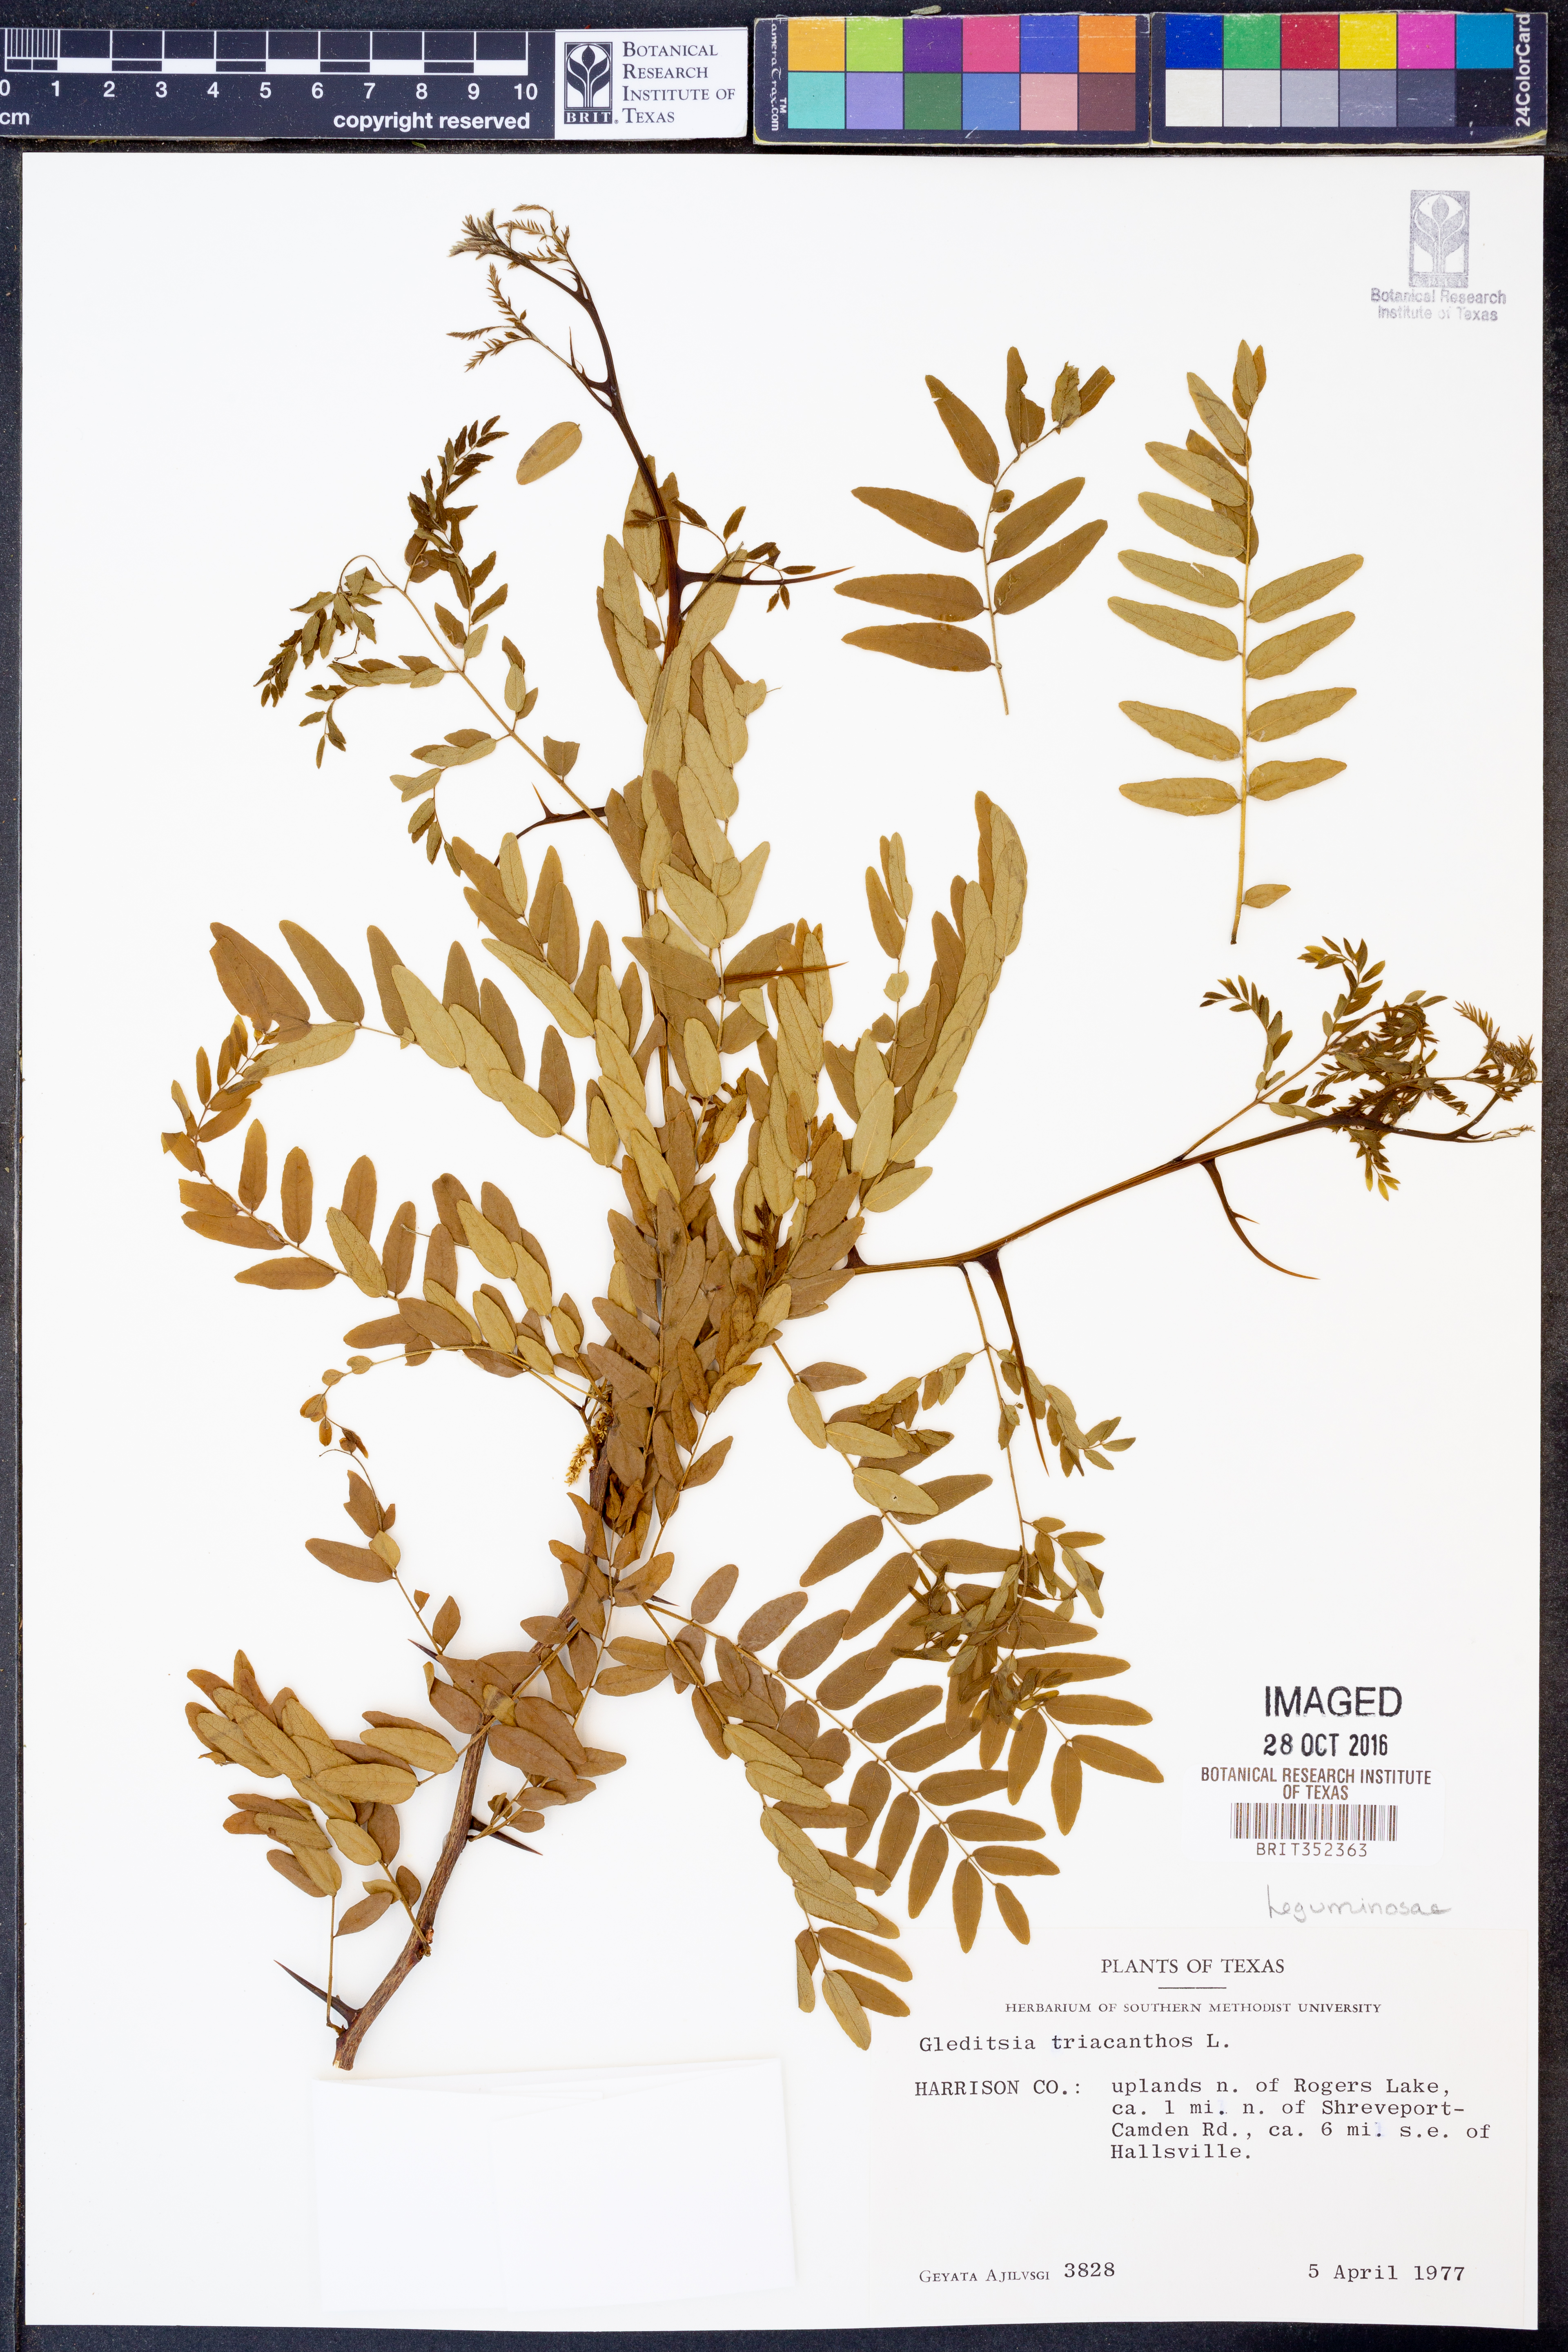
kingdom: Plantae
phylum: Tracheophyta
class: Magnoliopsida
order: Fabales
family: Fabaceae
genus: Gleditsia
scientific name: Gleditsia triacanthos
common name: Common honeylocust
